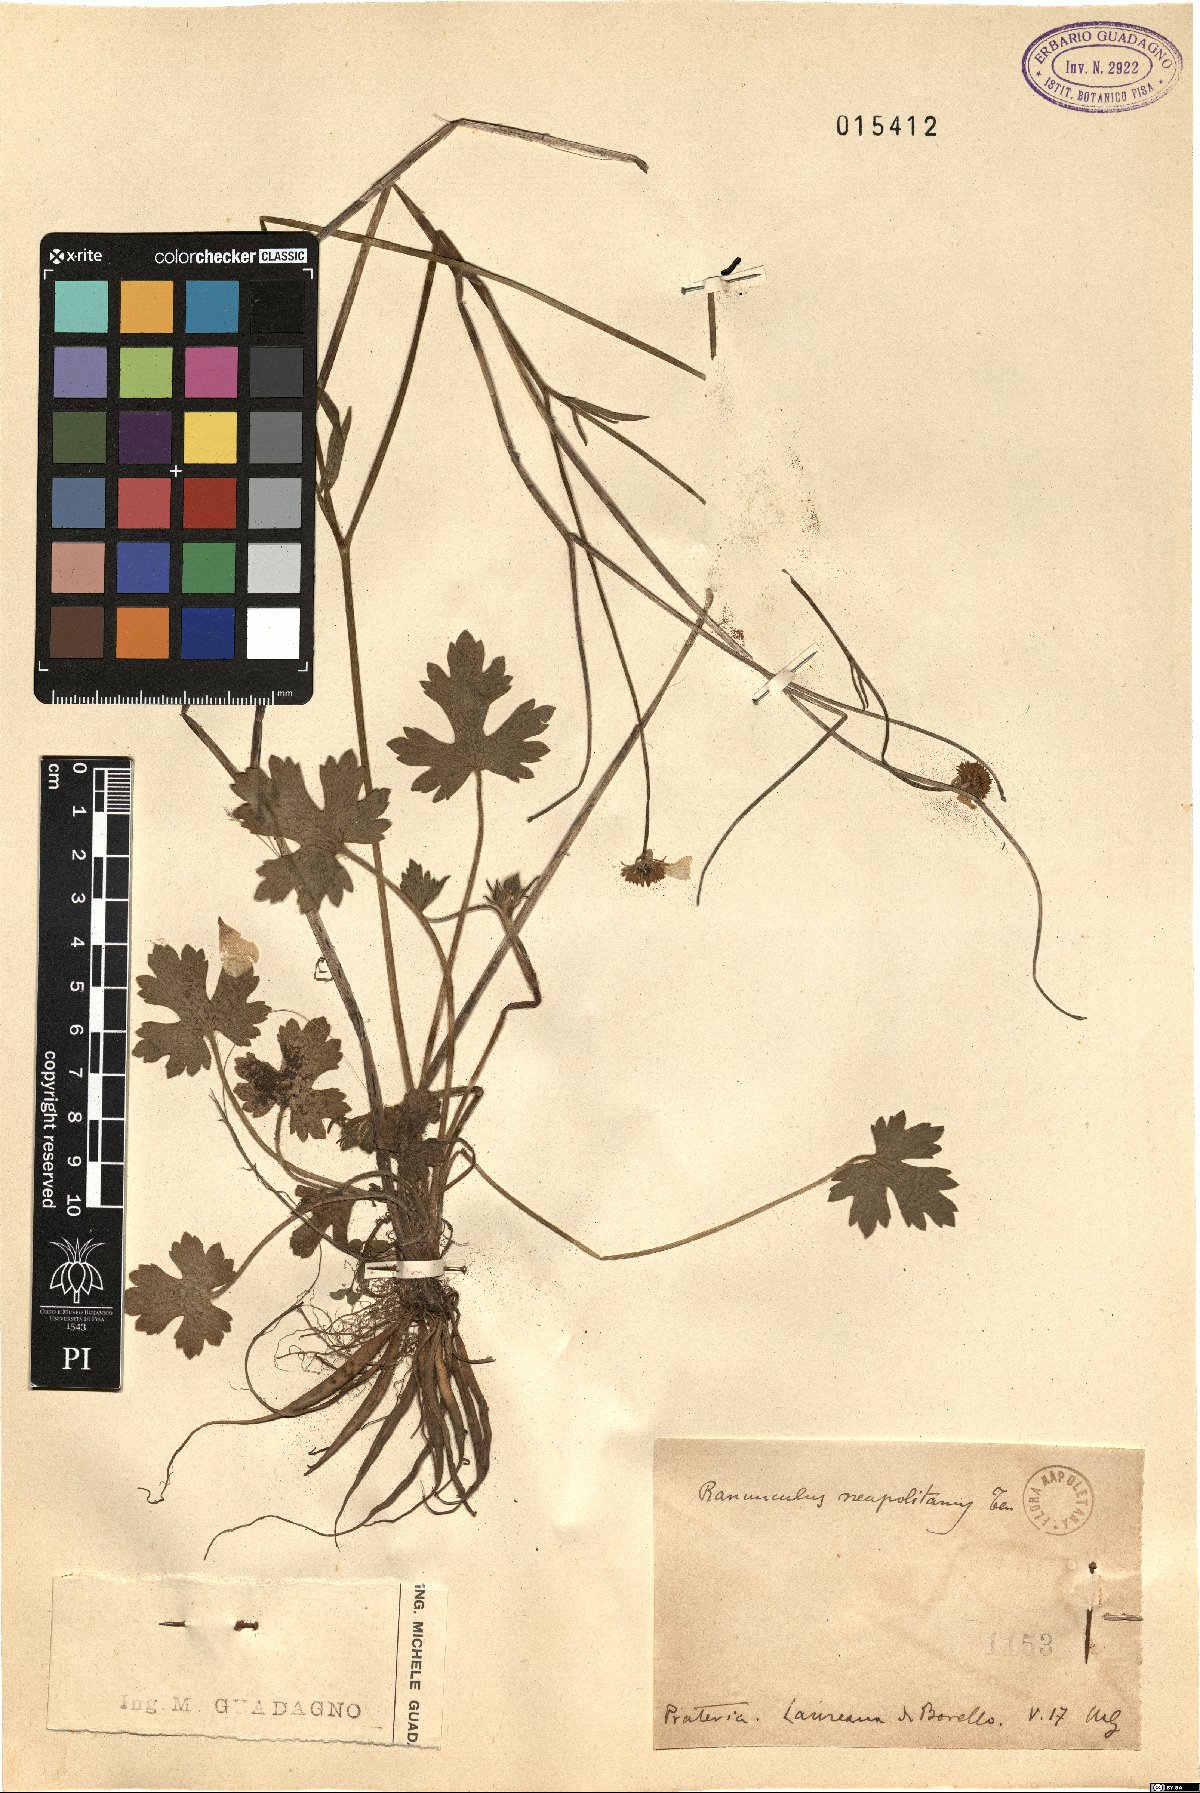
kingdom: Plantae
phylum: Tracheophyta
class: Magnoliopsida
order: Ranunculales
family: Ranunculaceae
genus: Ranunculus
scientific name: Ranunculus neapolitanus
